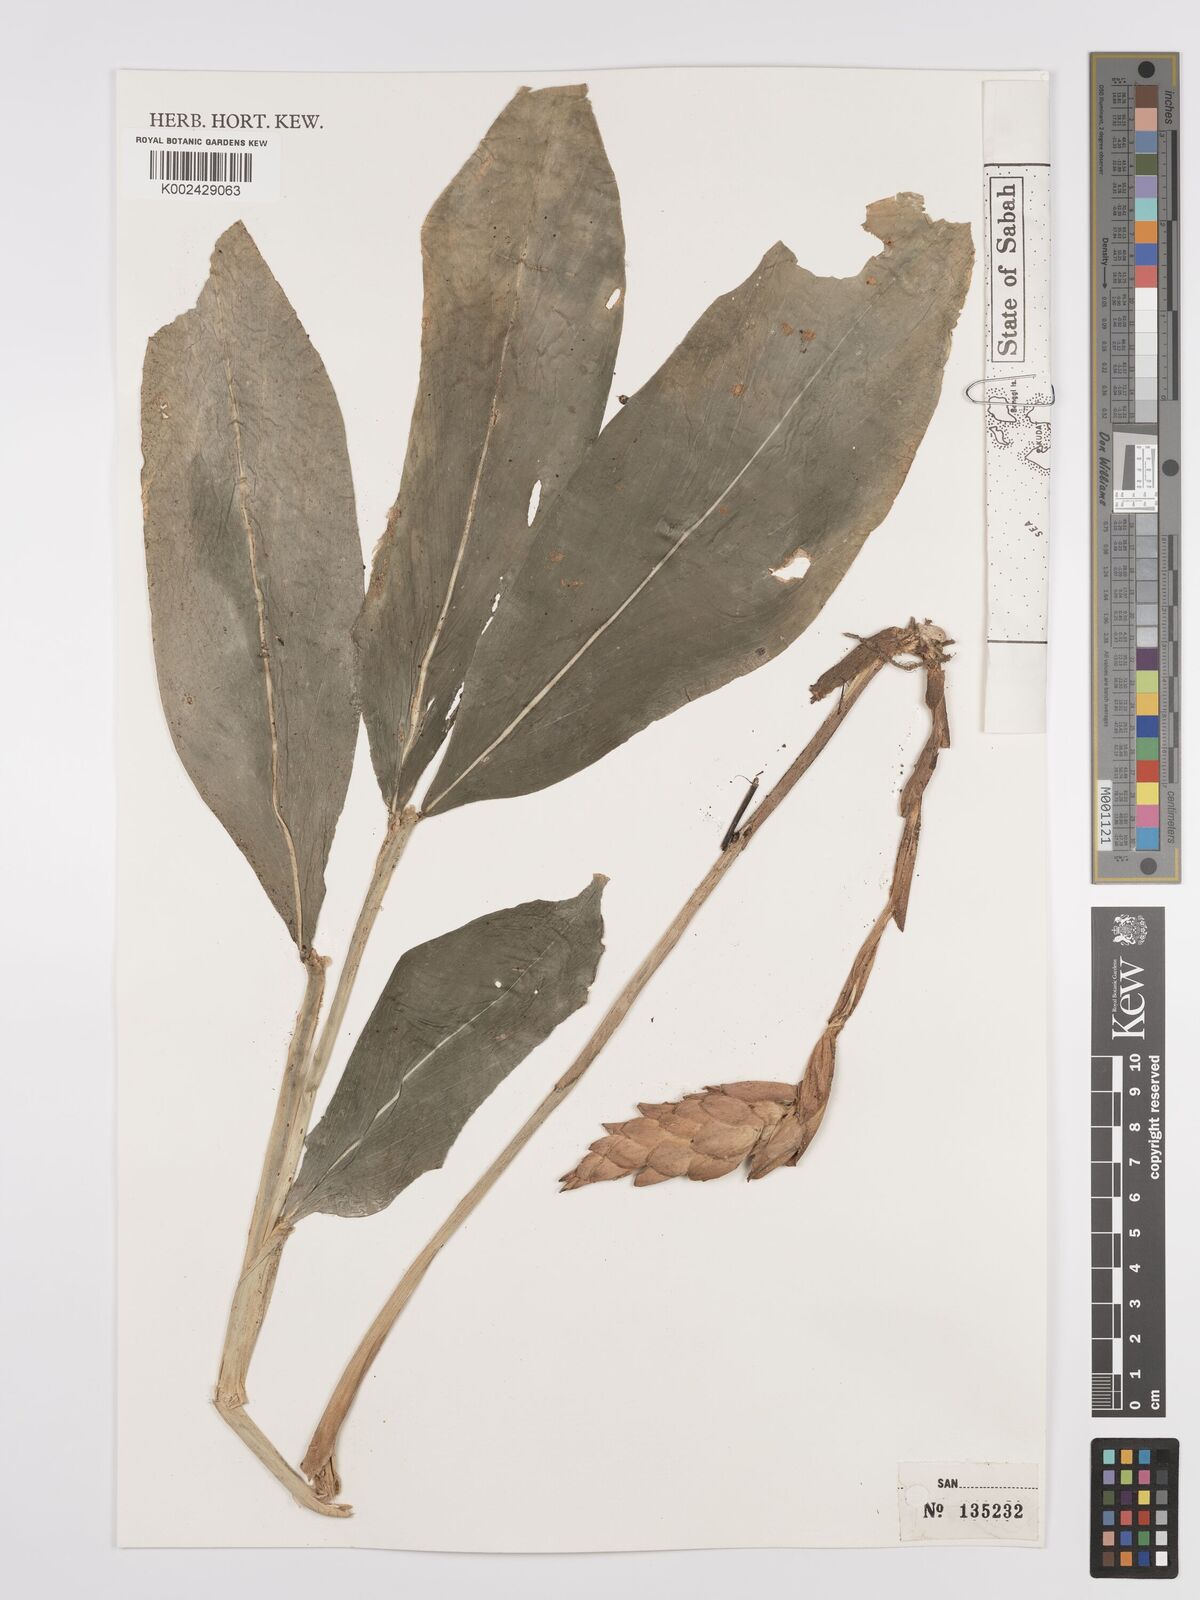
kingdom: Plantae
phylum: Tracheophyta
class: Liliopsida
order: Zingiberales
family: Zingiberaceae
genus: Zingiber
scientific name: Zingiber griffithii
